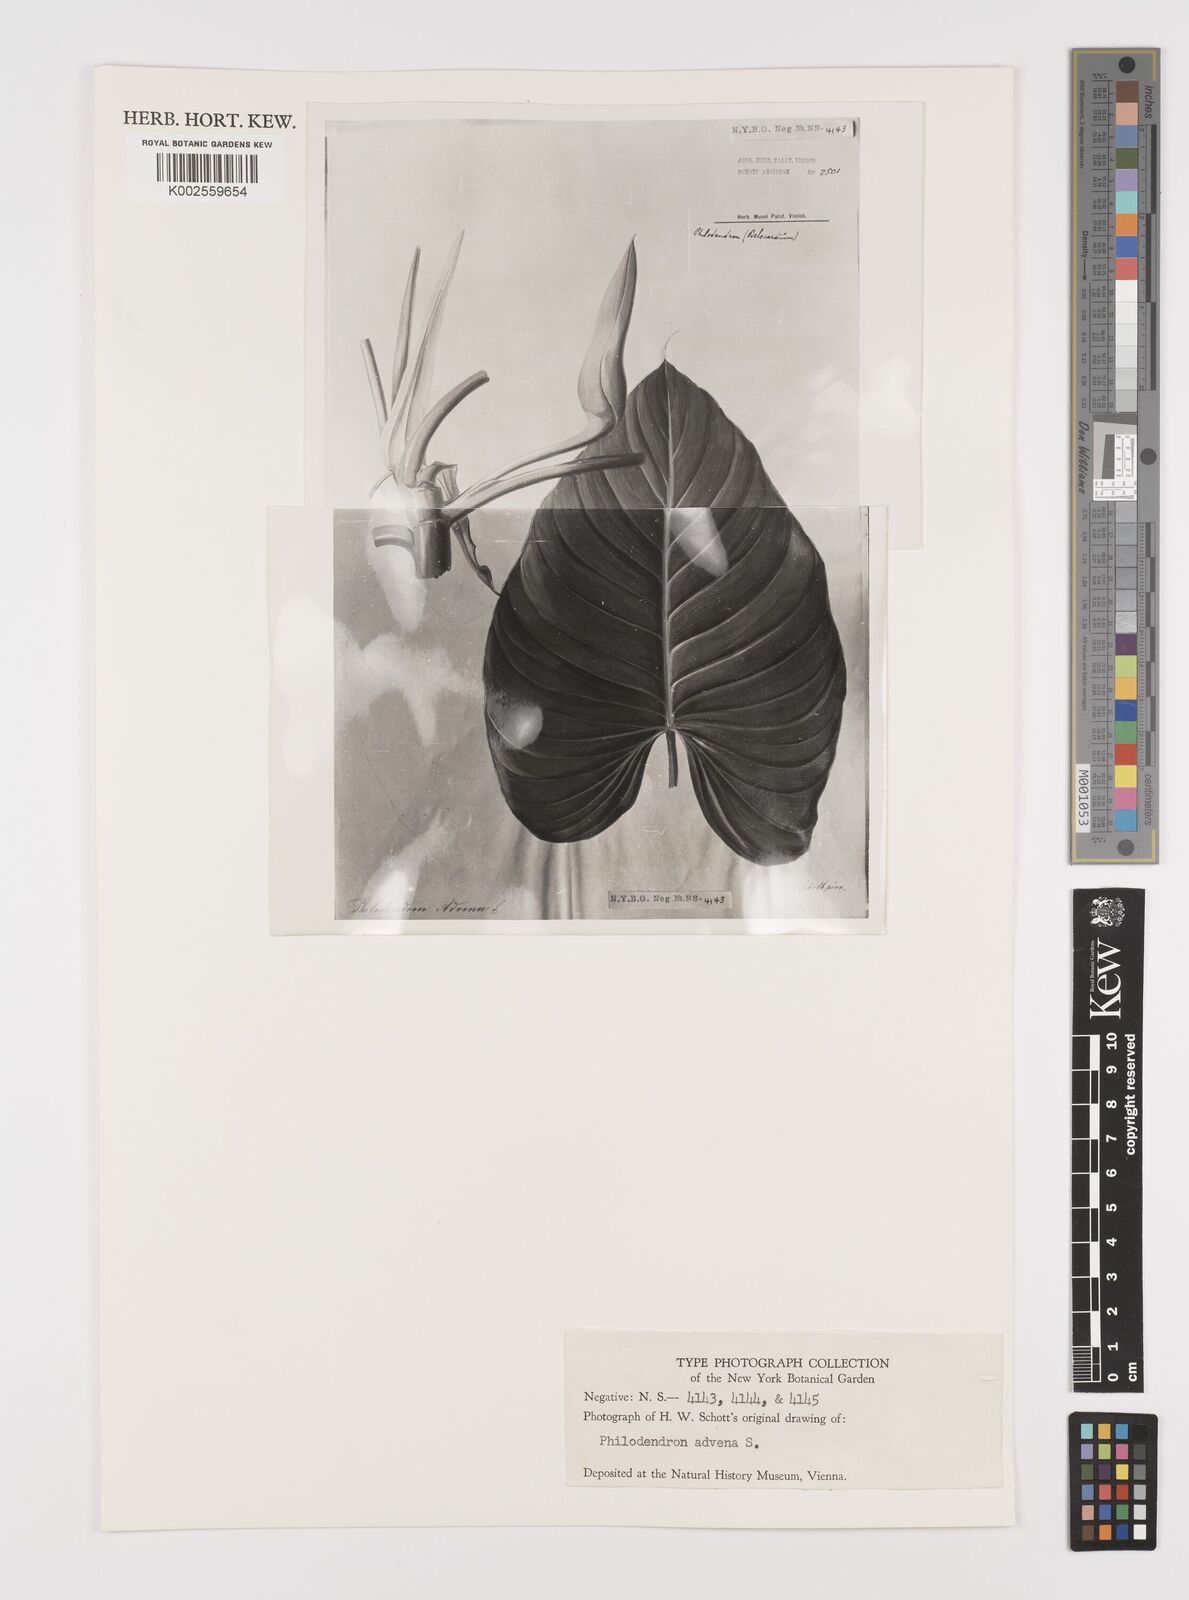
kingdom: Plantae
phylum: Tracheophyta
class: Liliopsida
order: Alismatales
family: Araceae
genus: Philodendron
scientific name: Philodendron advena
